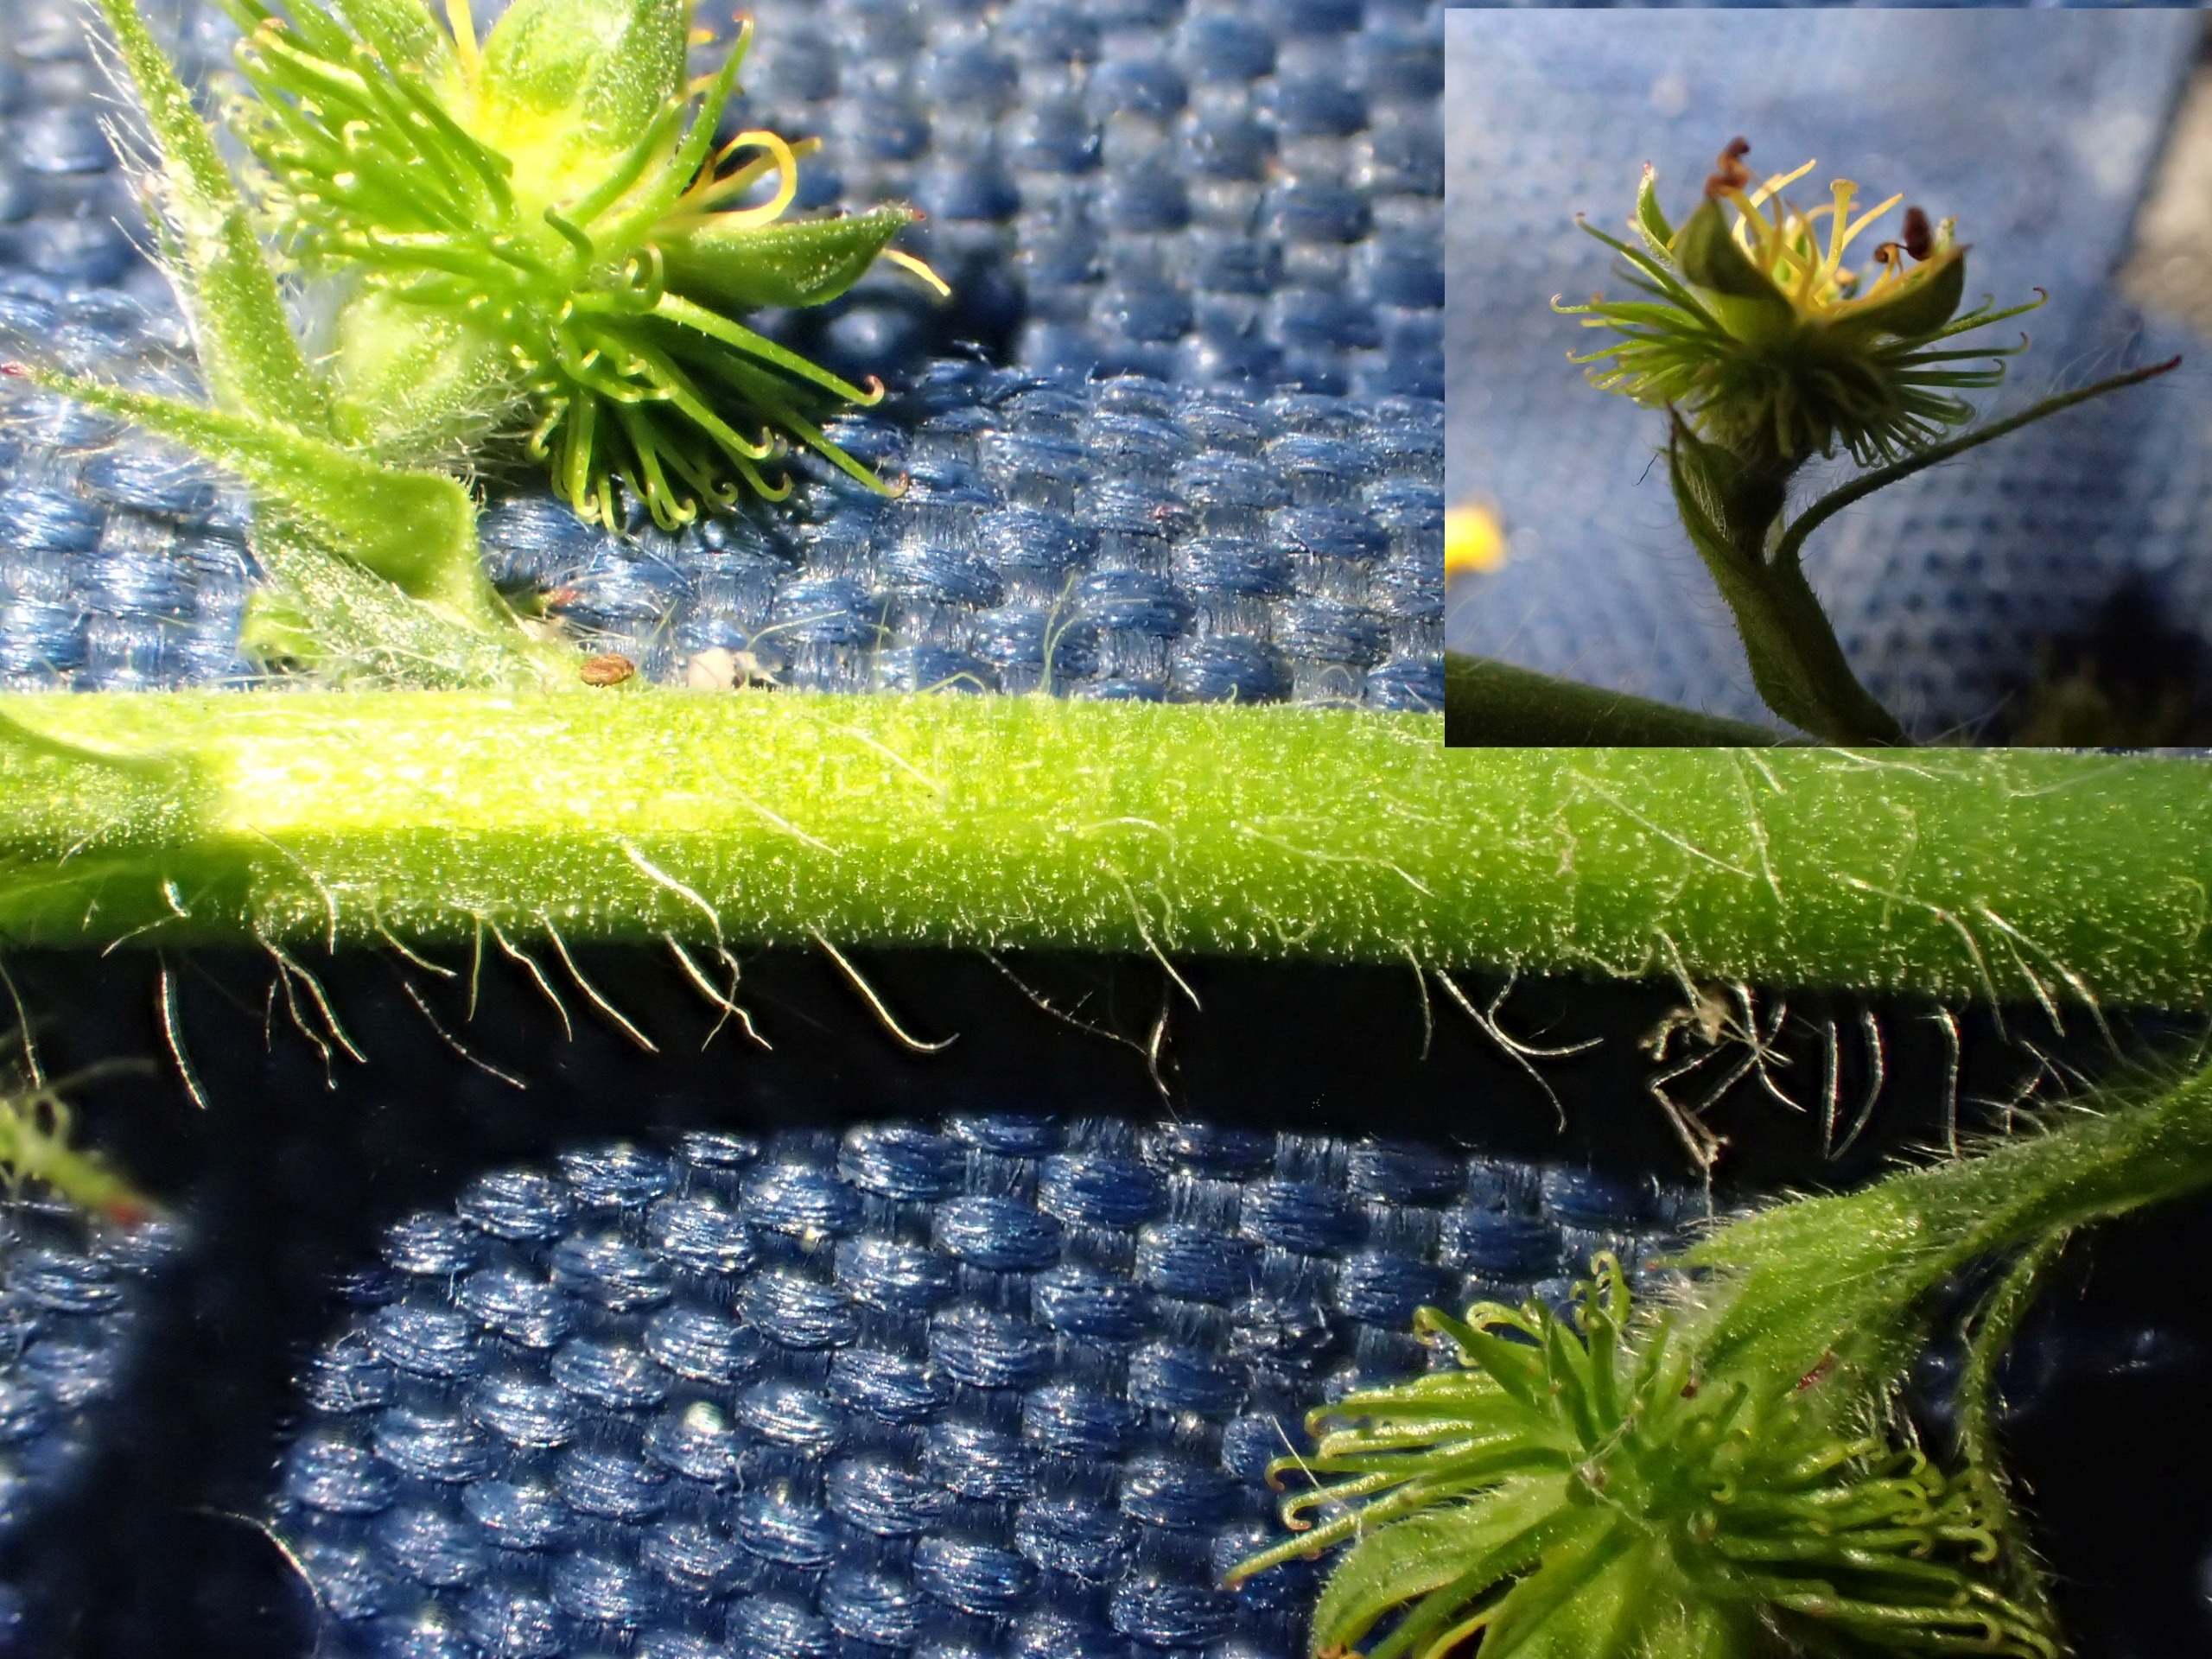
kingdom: Plantae
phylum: Tracheophyta
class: Magnoliopsida
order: Rosales
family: Rosaceae
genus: Agrimonia
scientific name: Agrimonia procera
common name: Vellugtende agermåne
